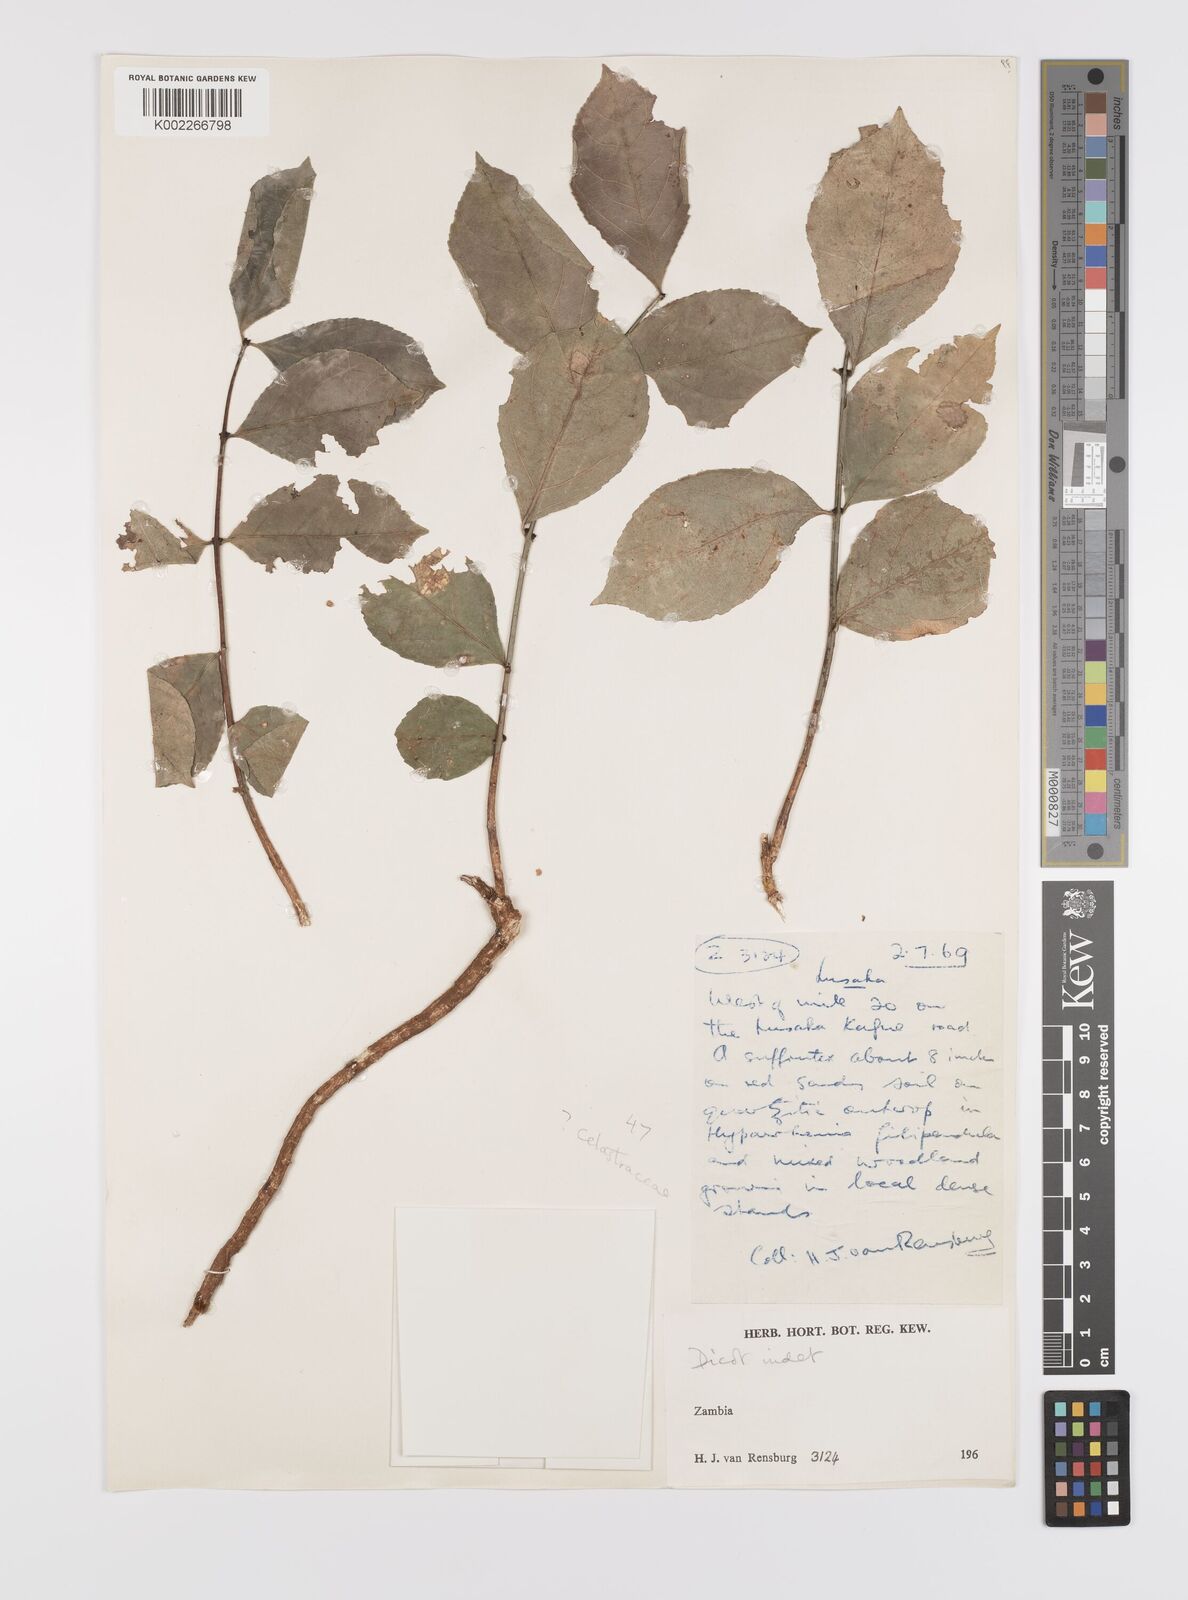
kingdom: Plantae
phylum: Tracheophyta
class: Magnoliopsida
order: Celastrales
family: Celastraceae
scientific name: Celastraceae
